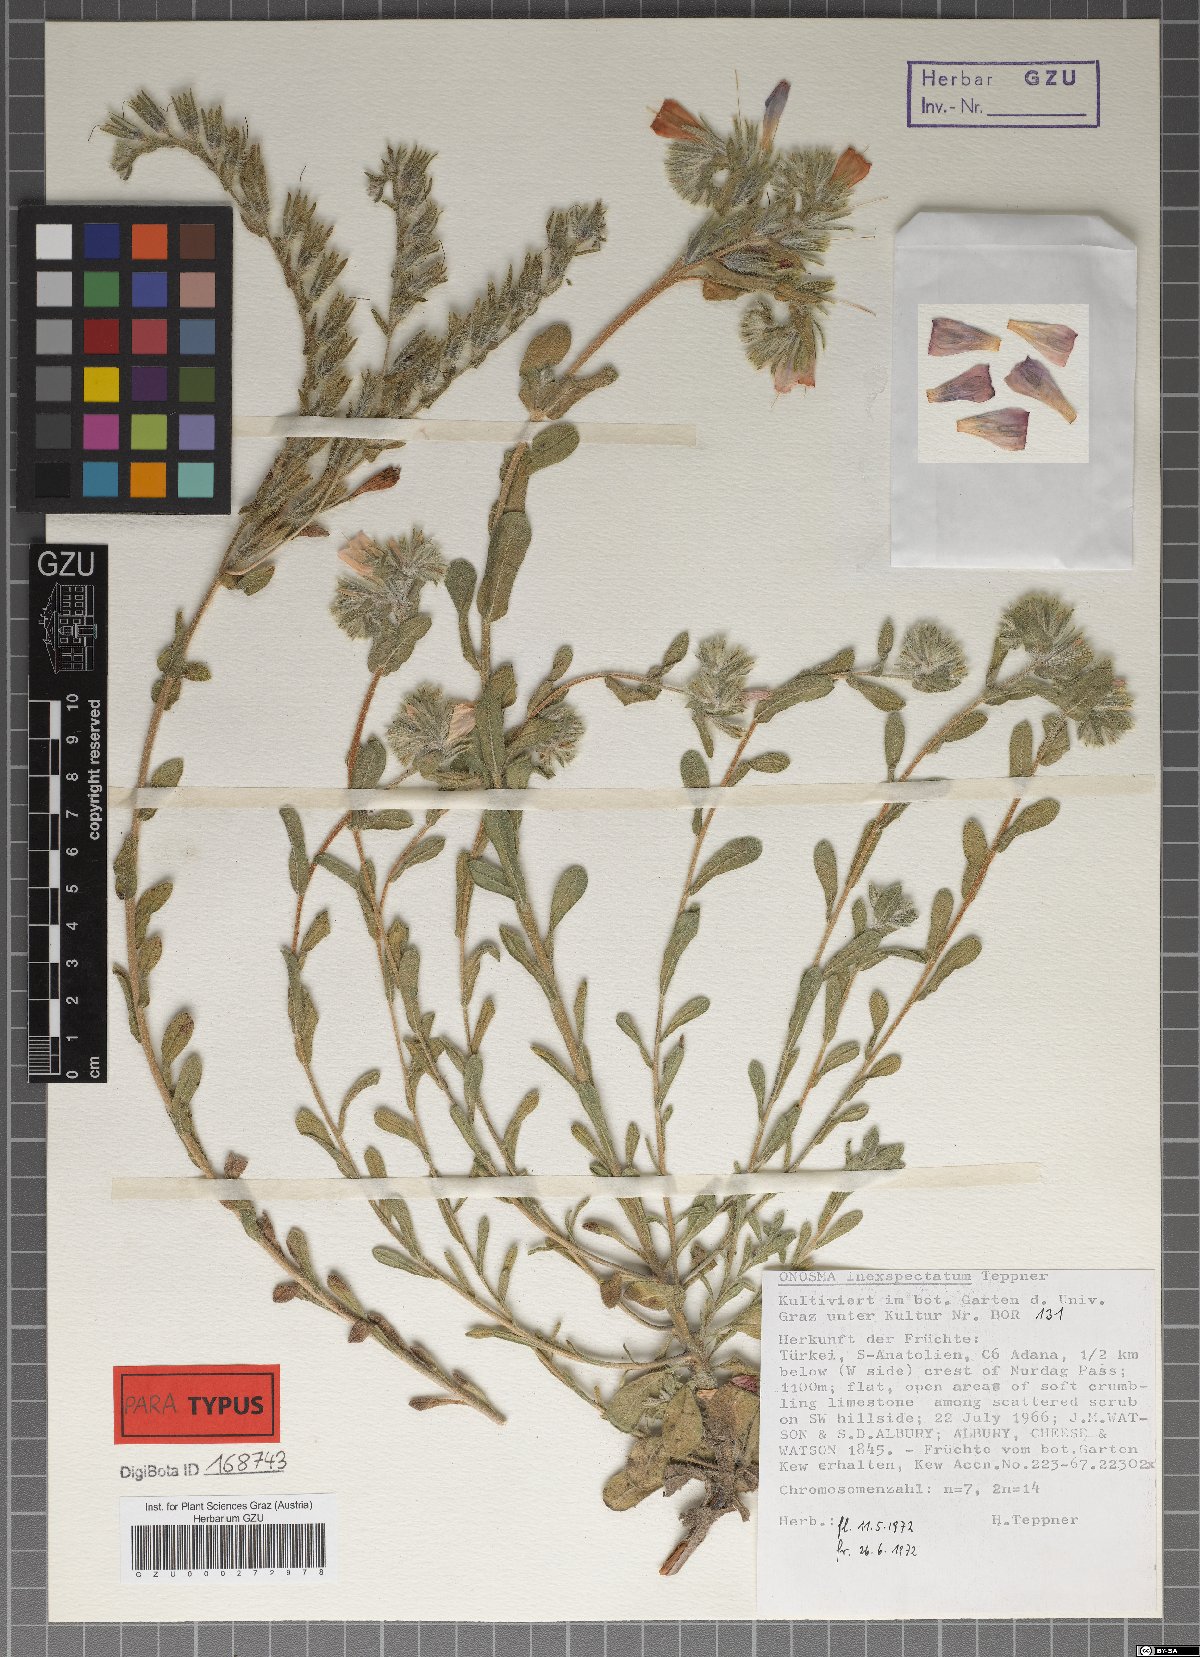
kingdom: Plantae
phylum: Tracheophyta
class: Magnoliopsida
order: Boraginales
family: Boraginaceae
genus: Onosma
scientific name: Onosma inexspectata
